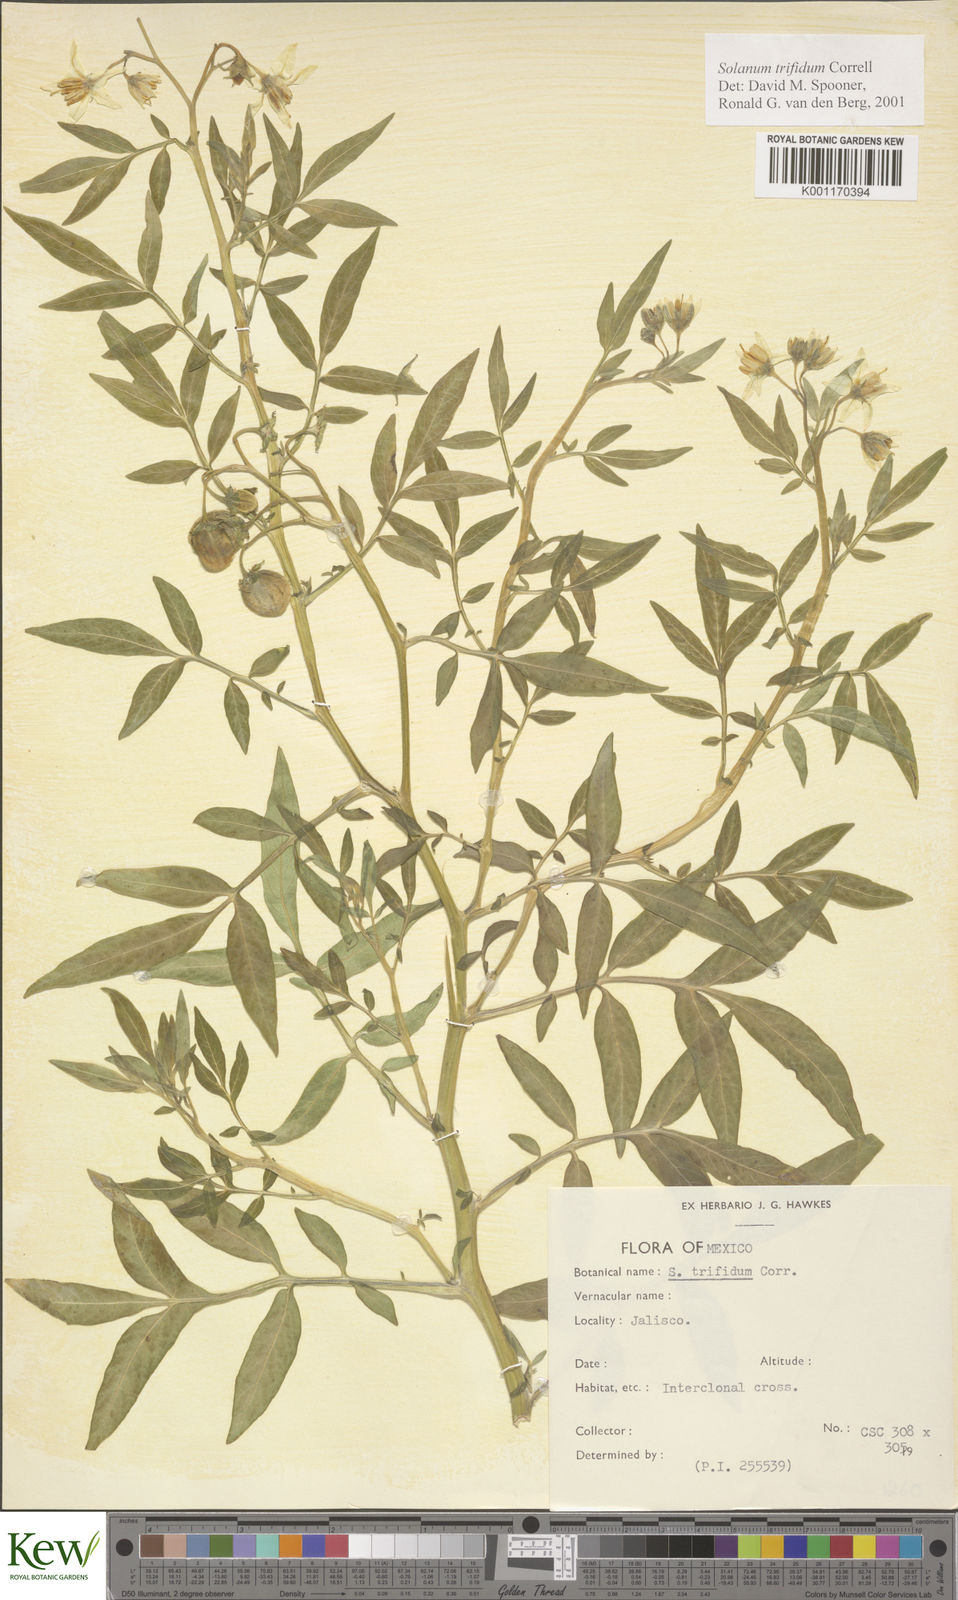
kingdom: Plantae
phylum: Tracheophyta
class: Magnoliopsida
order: Solanales
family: Solanaceae
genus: Solanum
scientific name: Solanum trifidum
